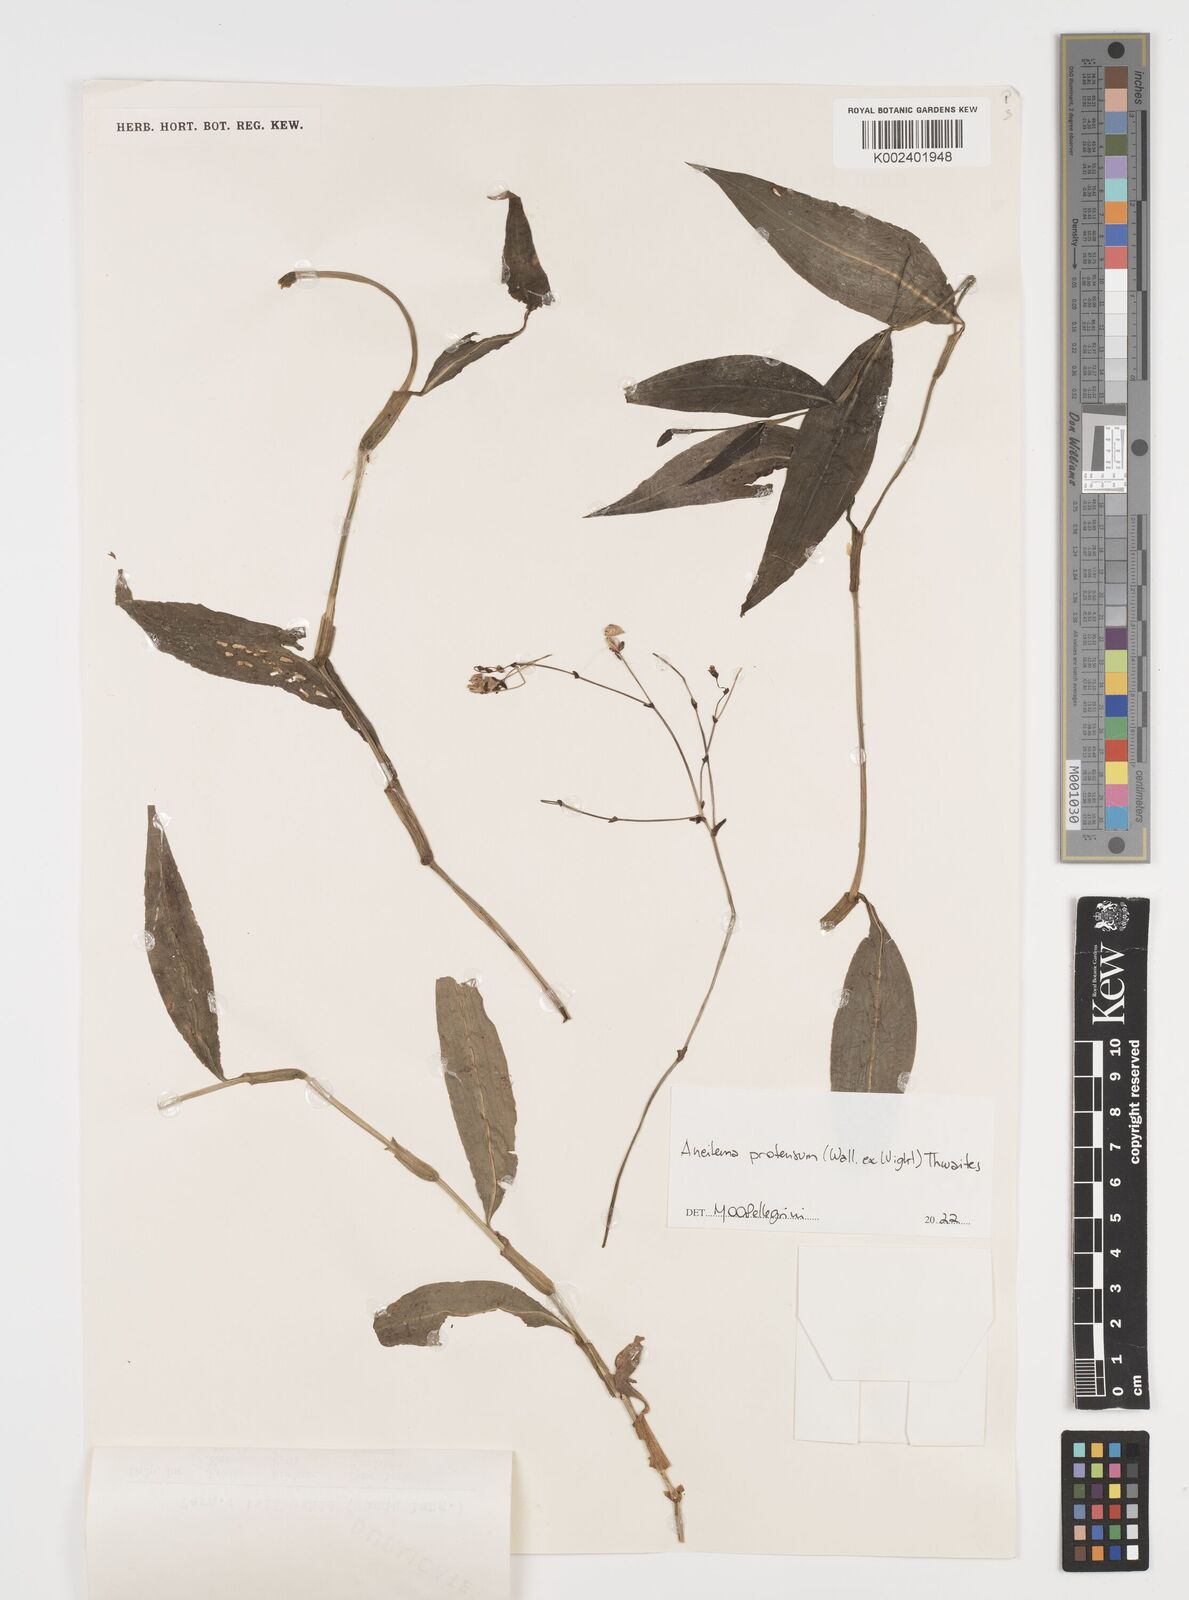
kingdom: Plantae
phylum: Tracheophyta
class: Liliopsida
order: Commelinales
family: Commelinaceae
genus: Rhopalephora
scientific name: Rhopalephora
